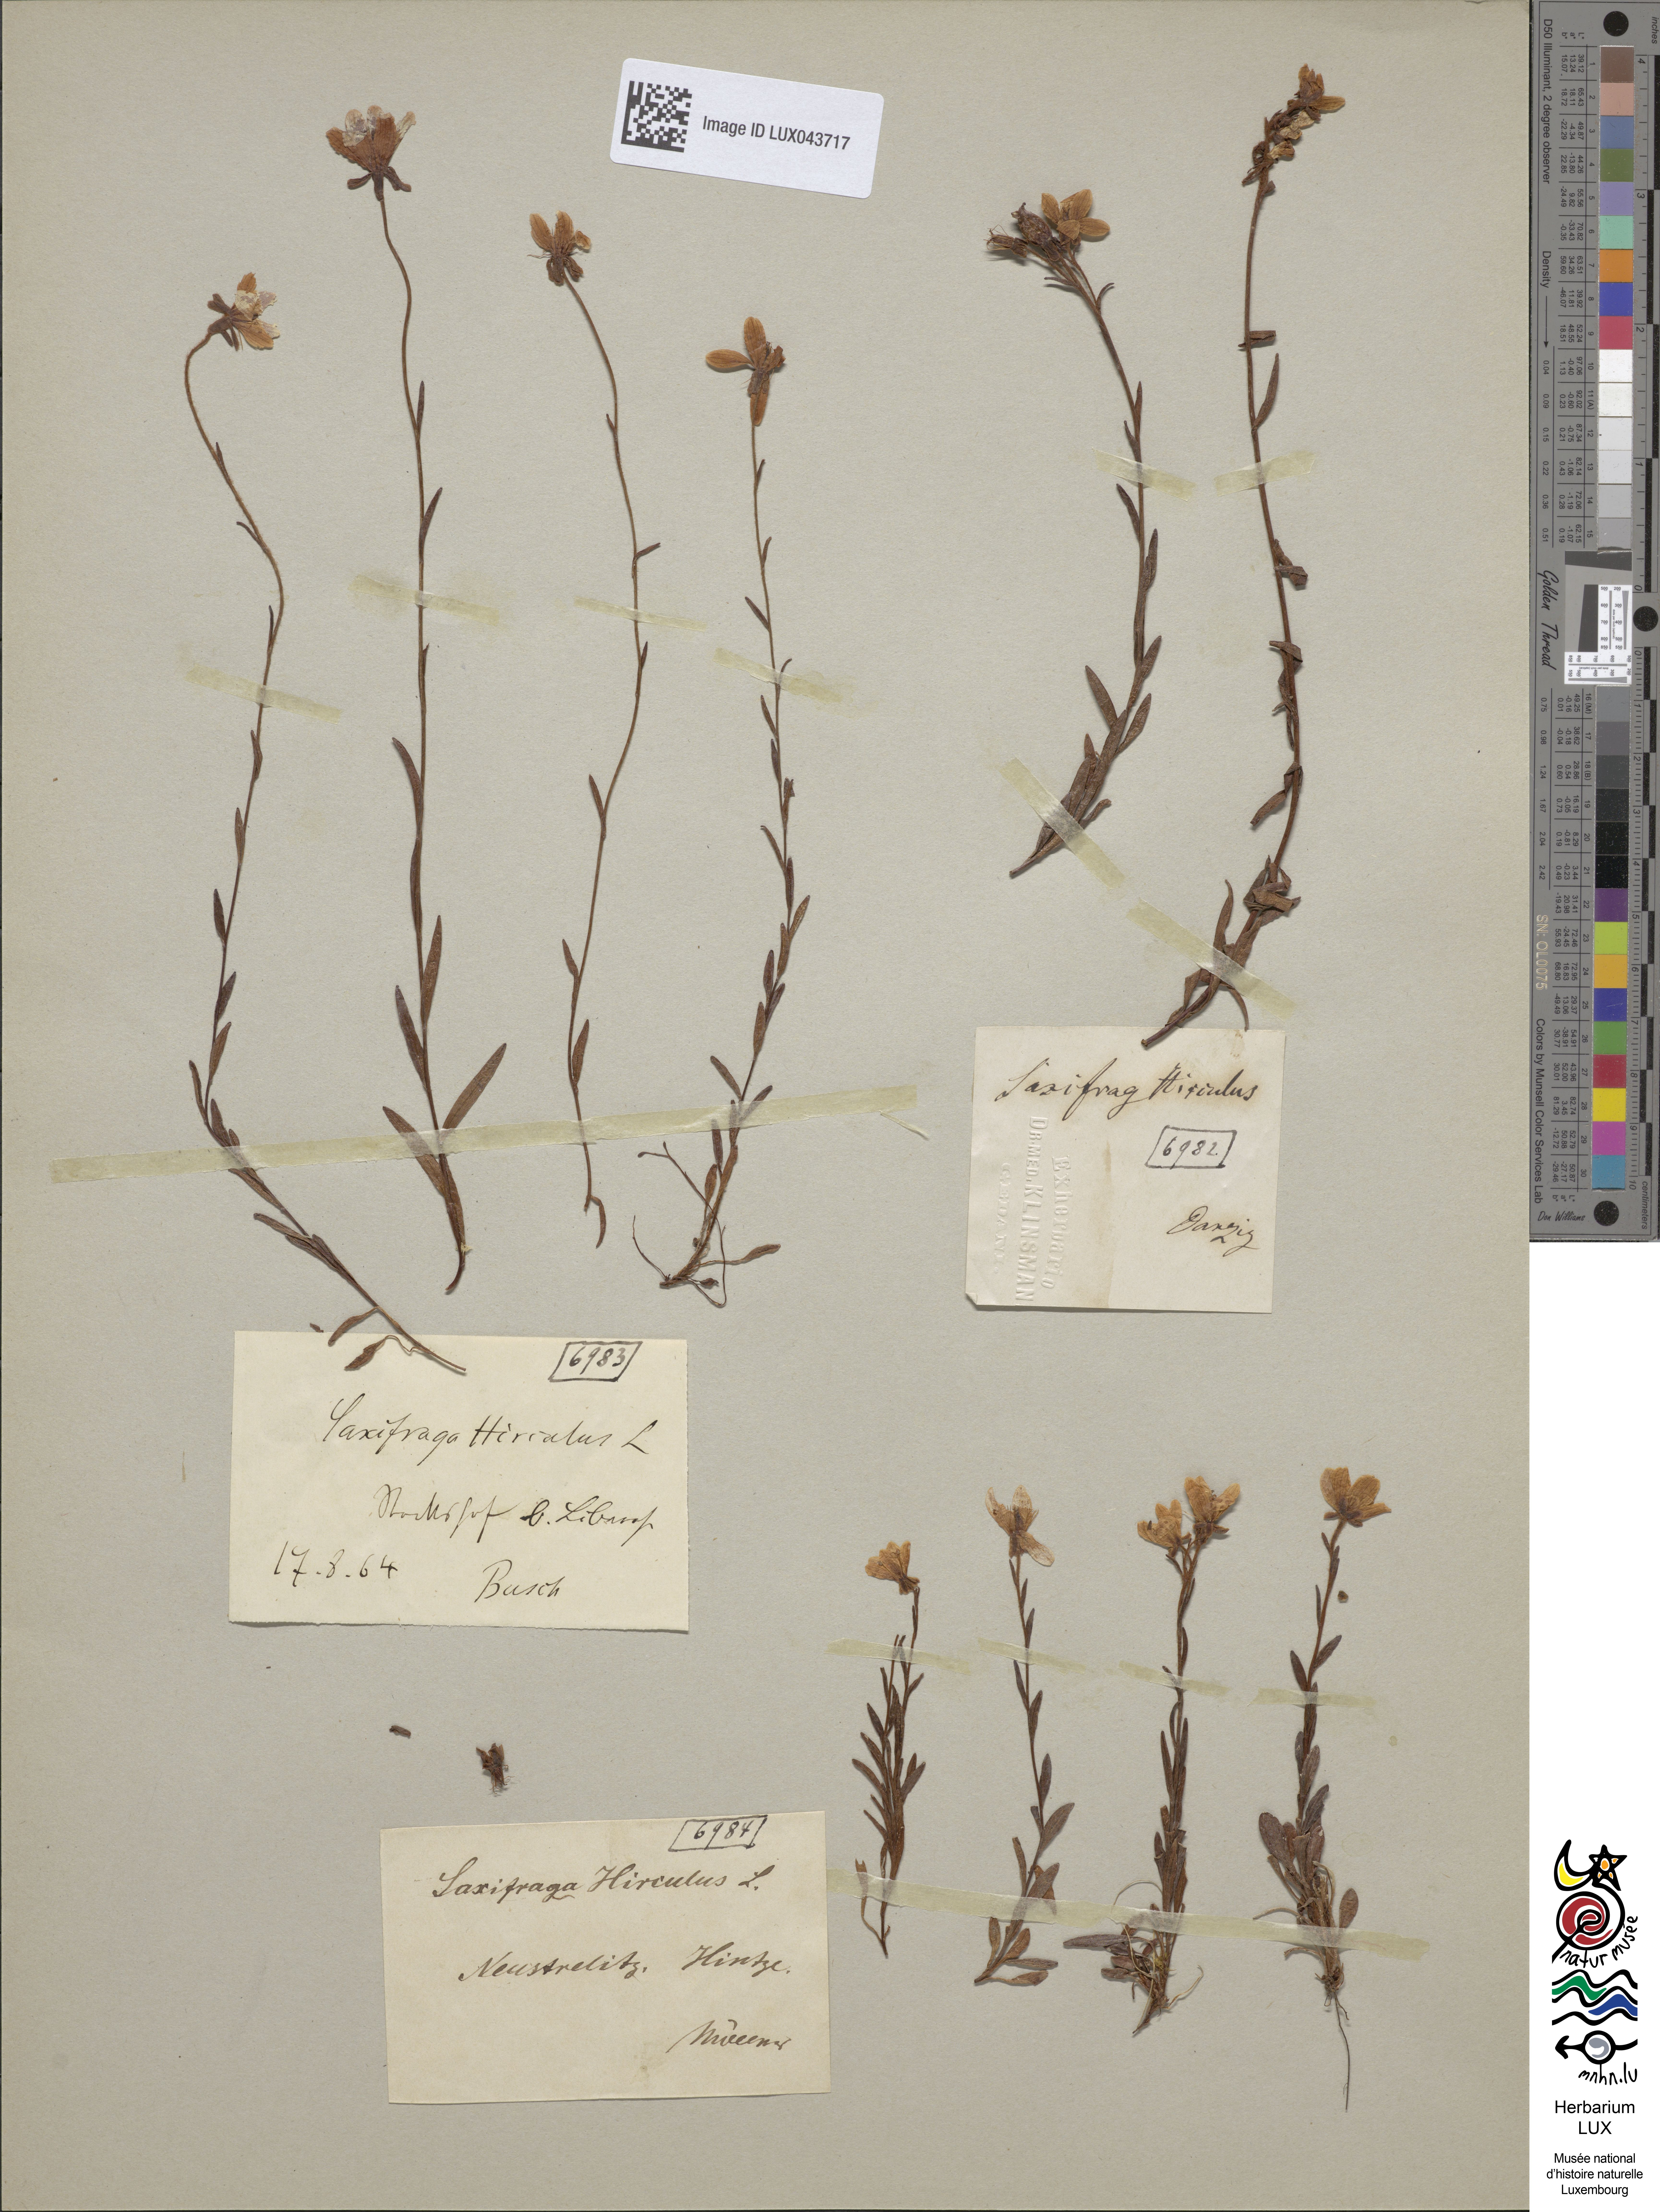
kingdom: Plantae
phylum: Tracheophyta
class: Magnoliopsida
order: Saxifragales
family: Saxifragaceae
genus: Saxifraga
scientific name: Saxifraga hirculus
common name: Yellow marsh saxifrage
